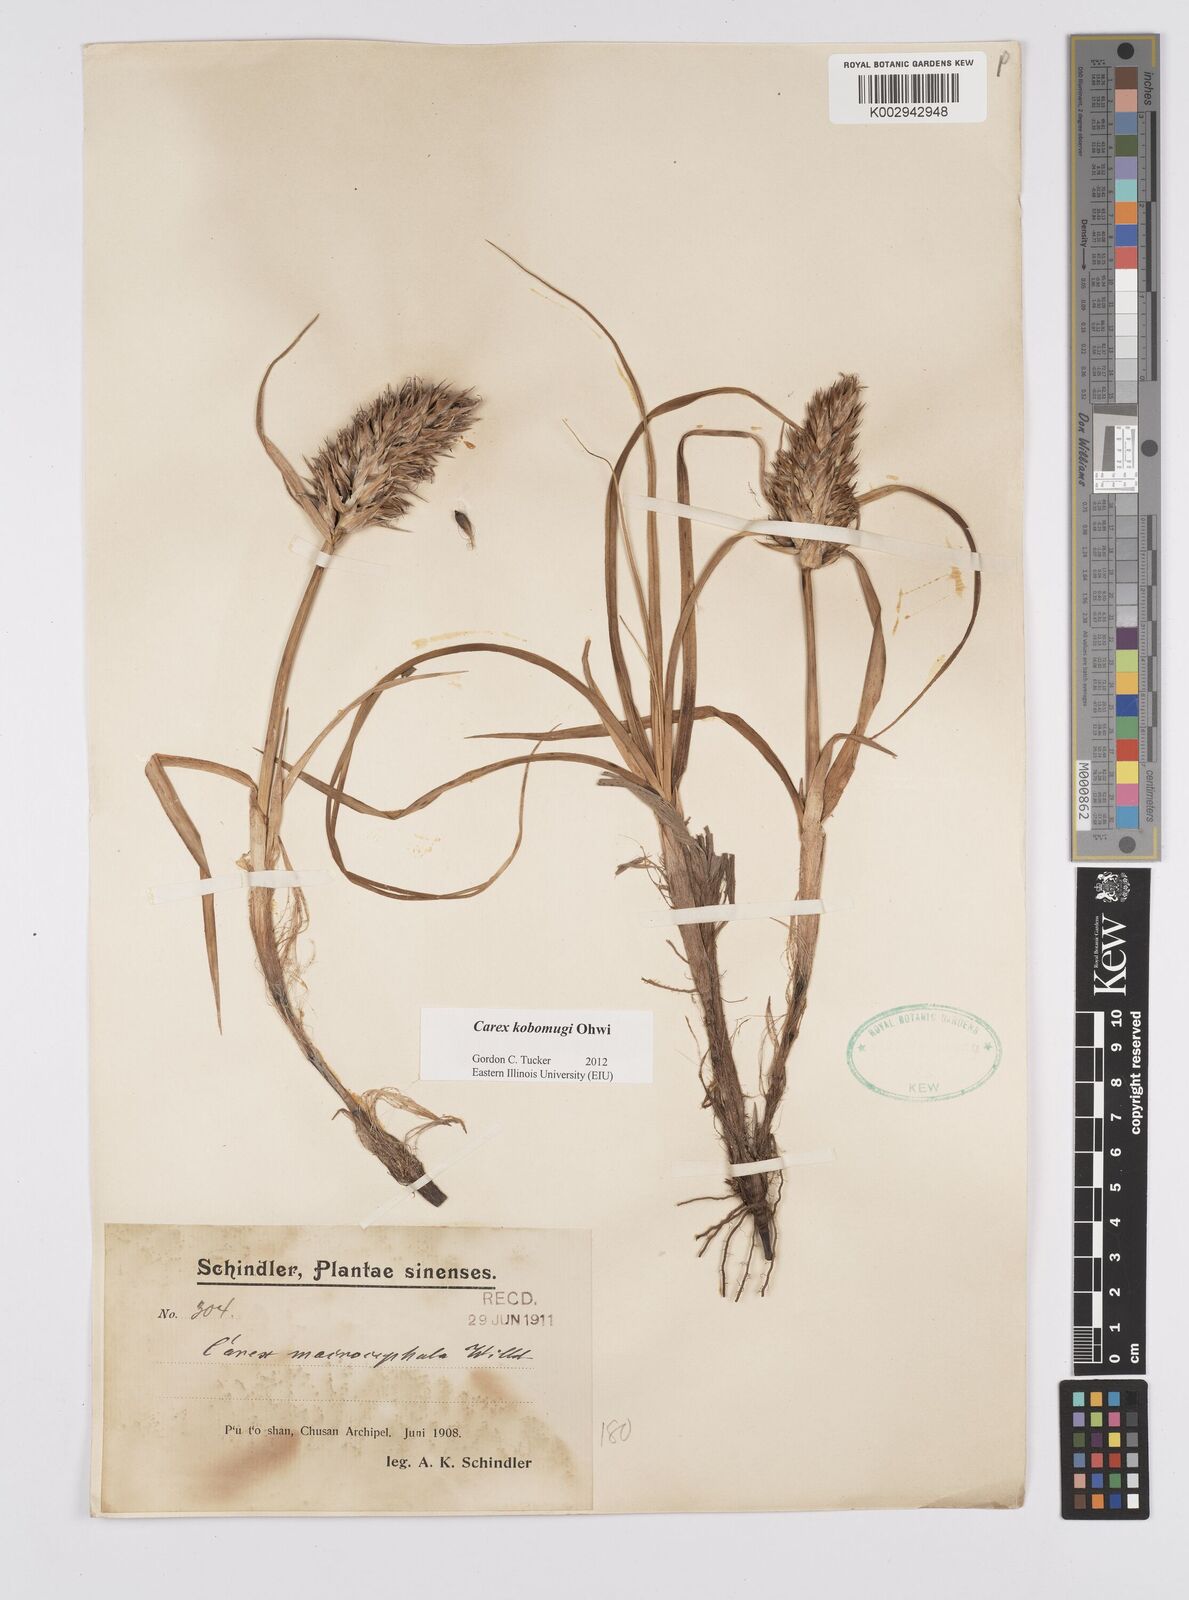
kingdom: Plantae
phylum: Tracheophyta
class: Liliopsida
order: Poales
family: Cyperaceae
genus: Carex
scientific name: Carex kobomugi
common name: Japanese sedge
